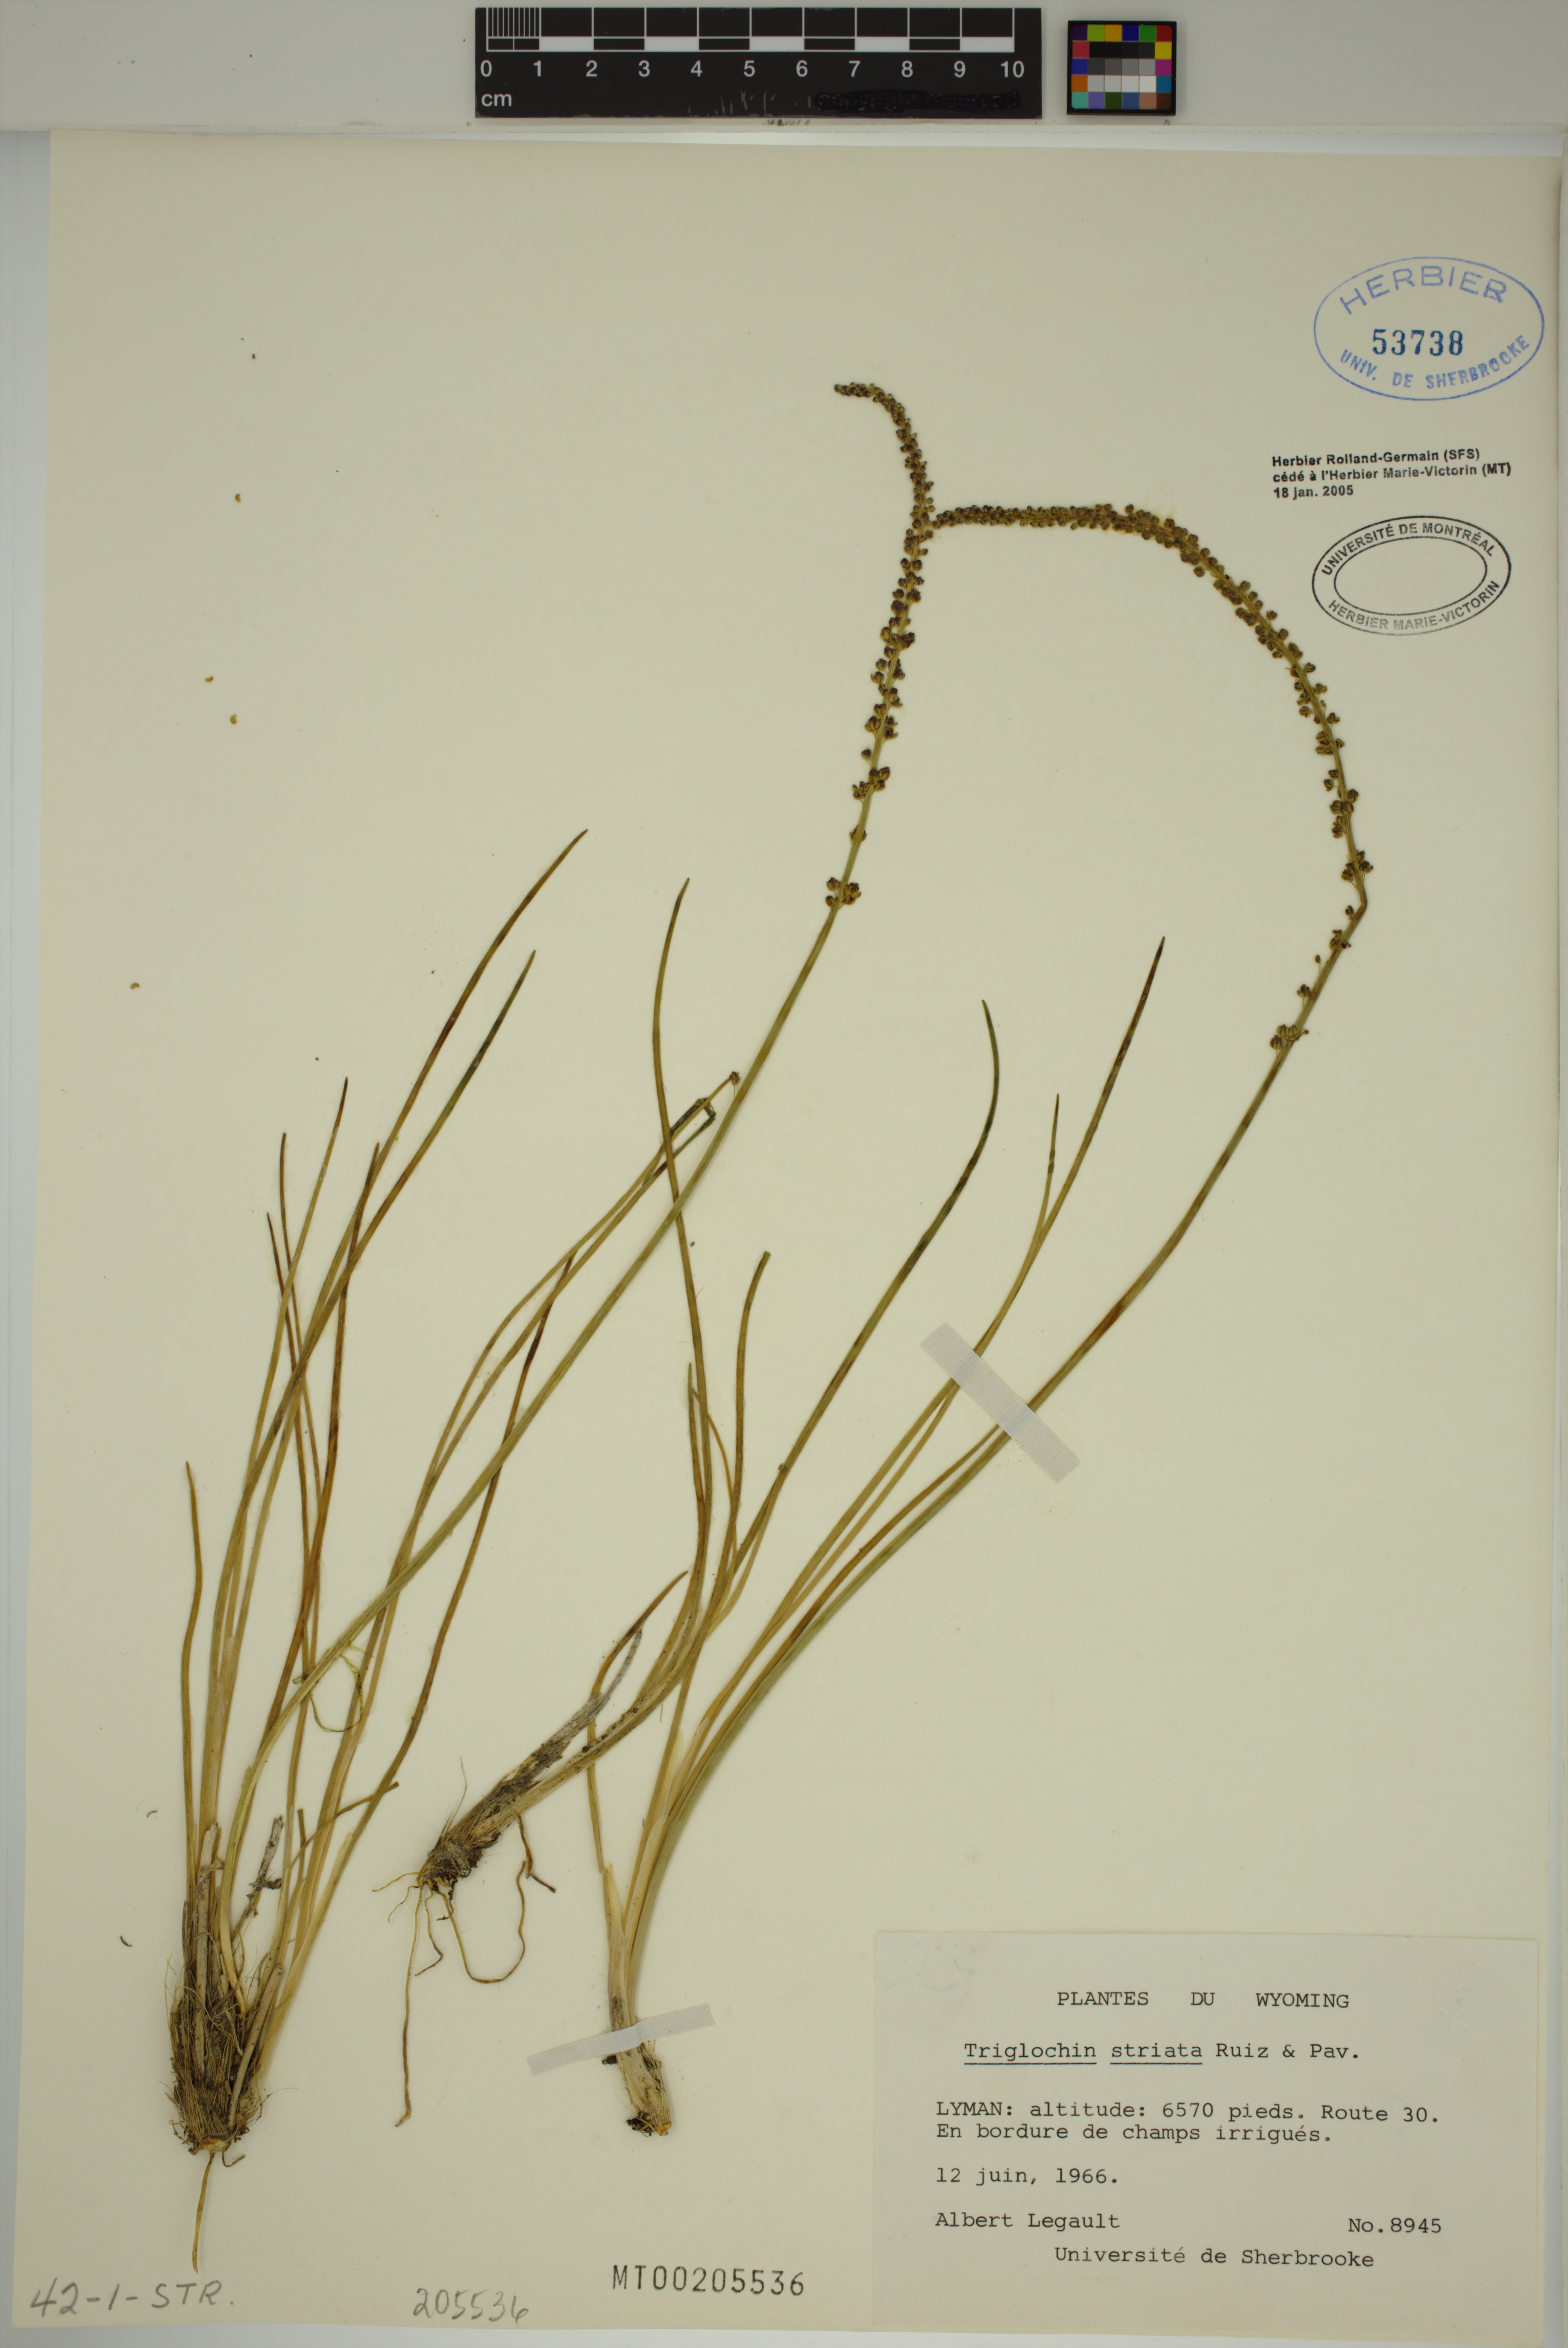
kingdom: Plantae
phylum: Tracheophyta
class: Liliopsida
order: Alismatales
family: Juncaginaceae
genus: Triglochin
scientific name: Triglochin striata
